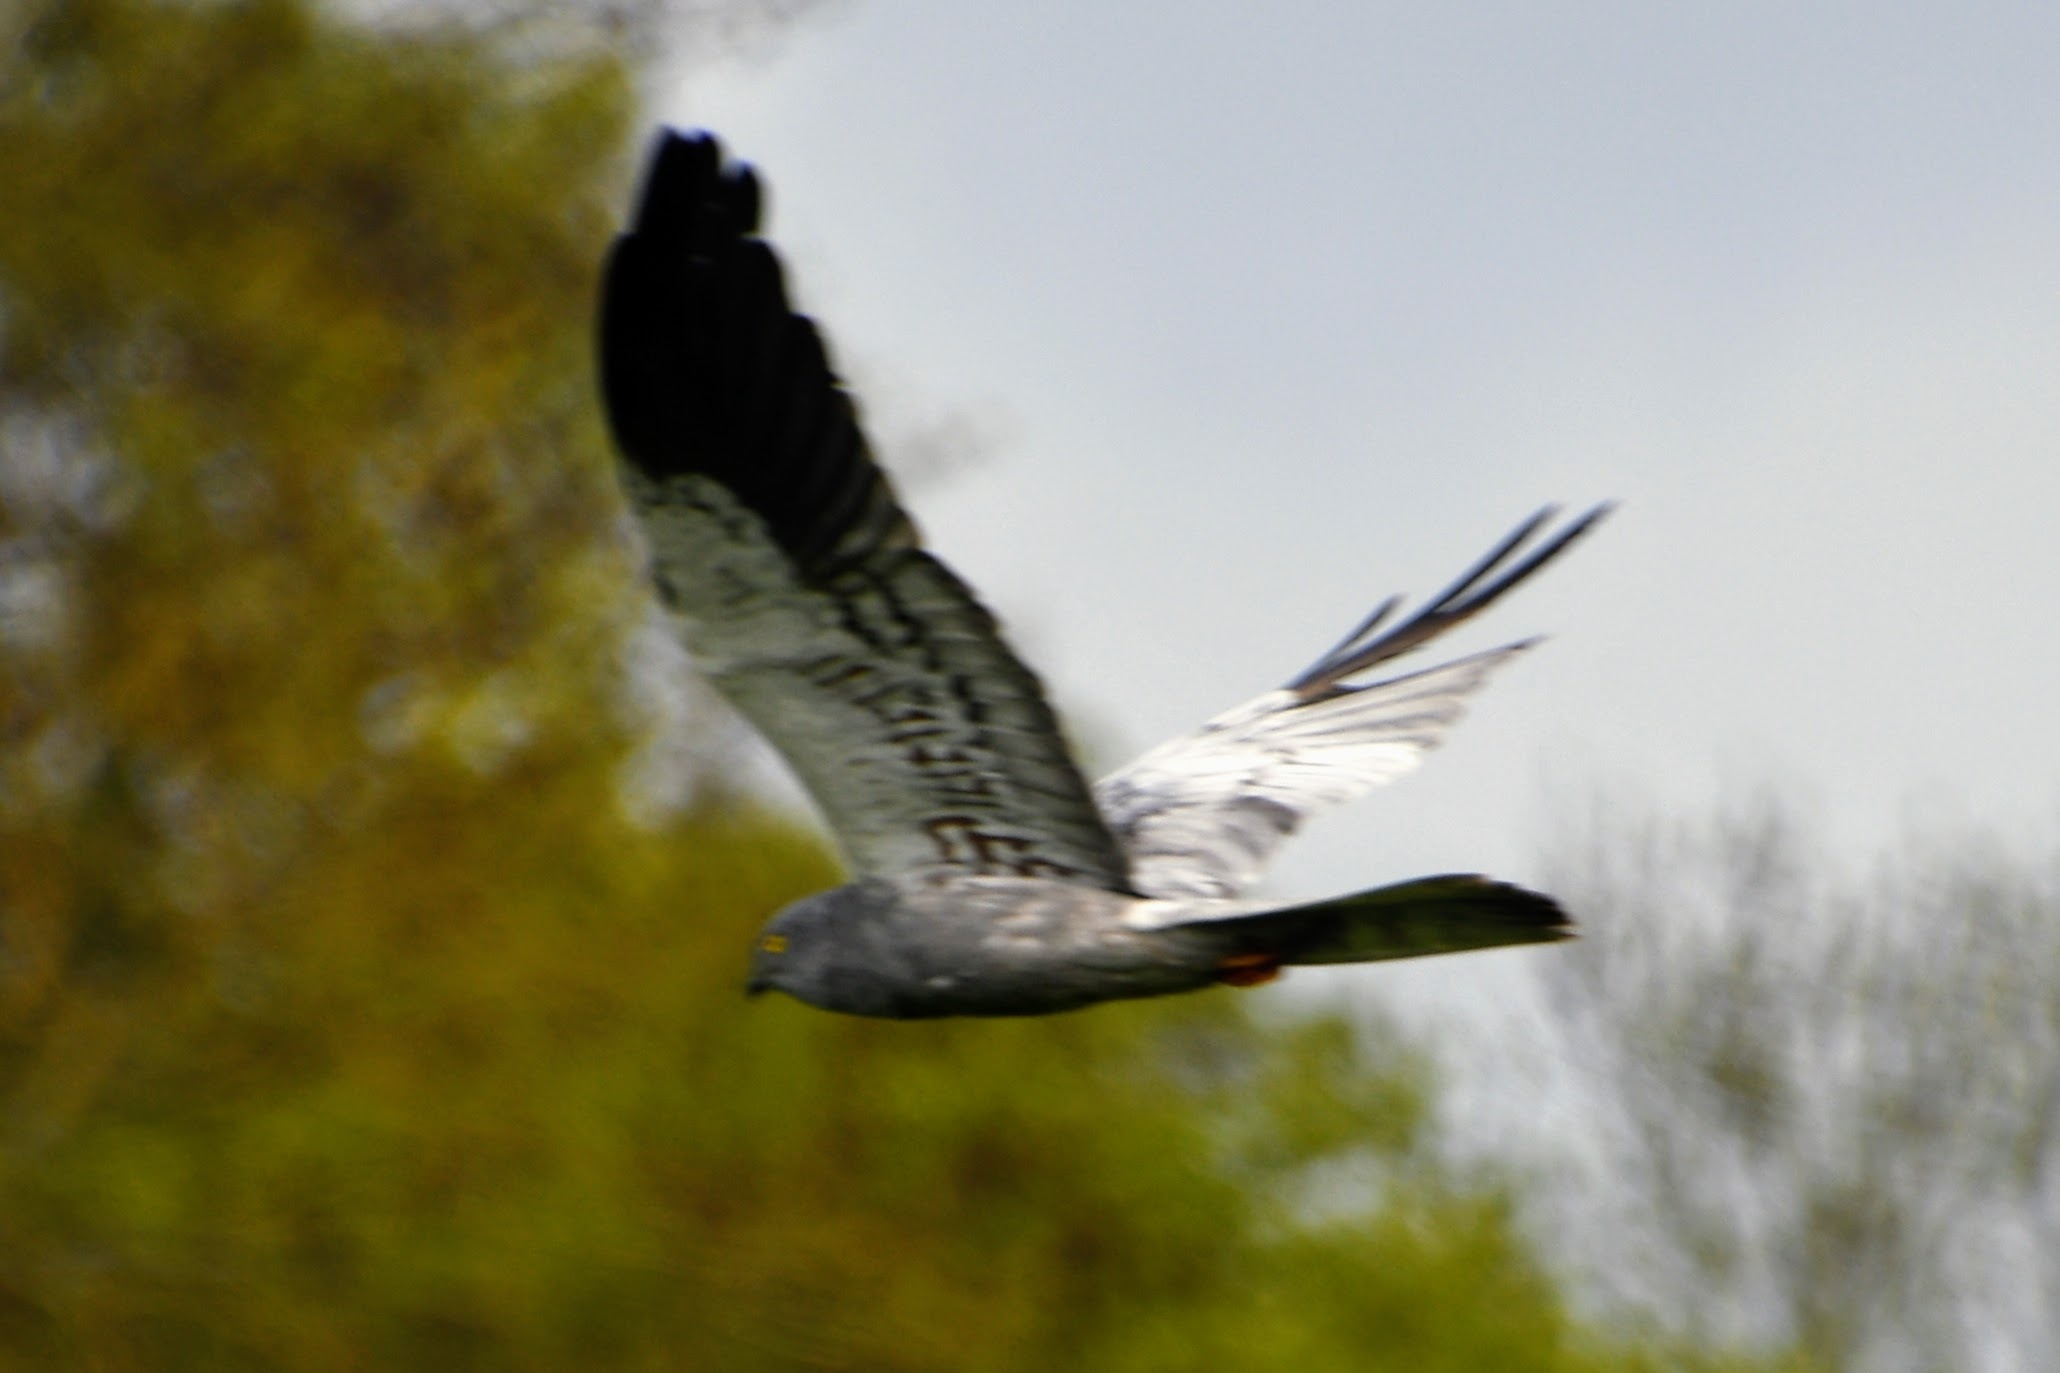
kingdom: Animalia
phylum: Chordata
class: Aves
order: Accipitriformes
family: Accipitridae
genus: Circus
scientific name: Circus pygargus
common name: Hedehøg
